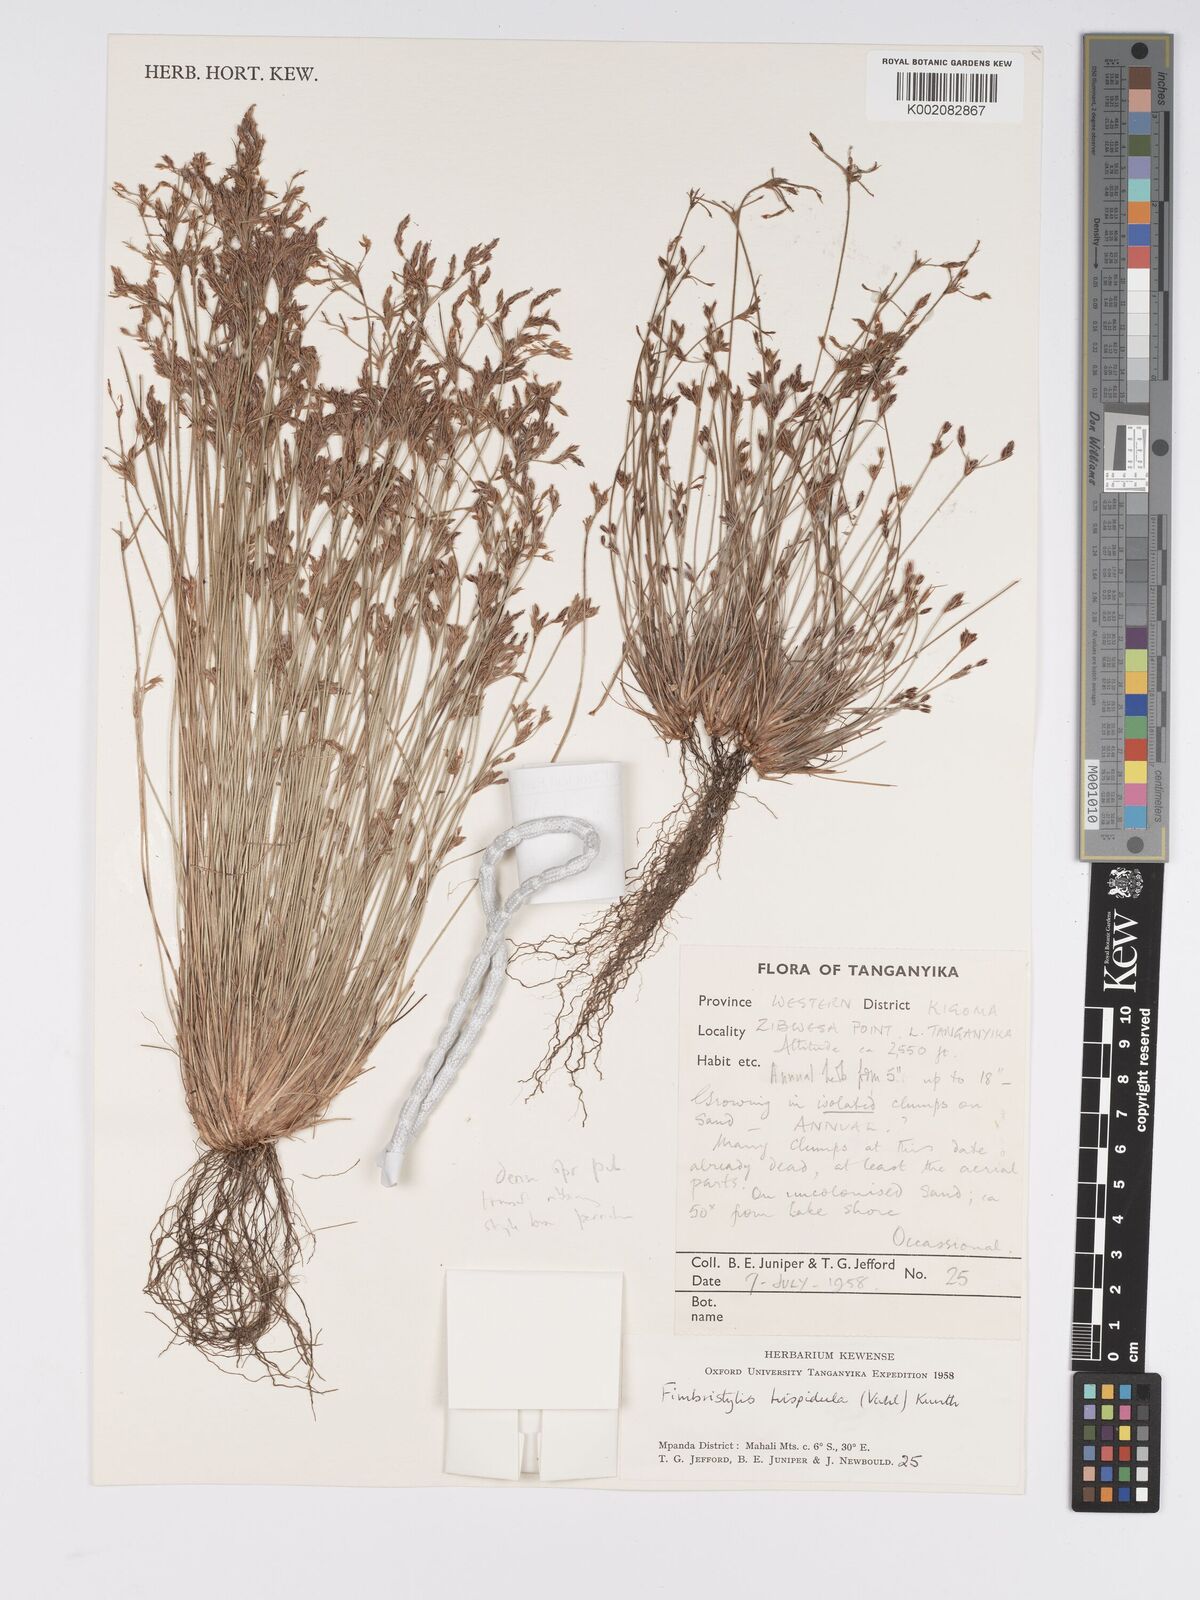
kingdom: Plantae
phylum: Tracheophyta
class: Liliopsida
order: Poales
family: Cyperaceae
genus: Bulbostylis
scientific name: Bulbostylis hispidula
